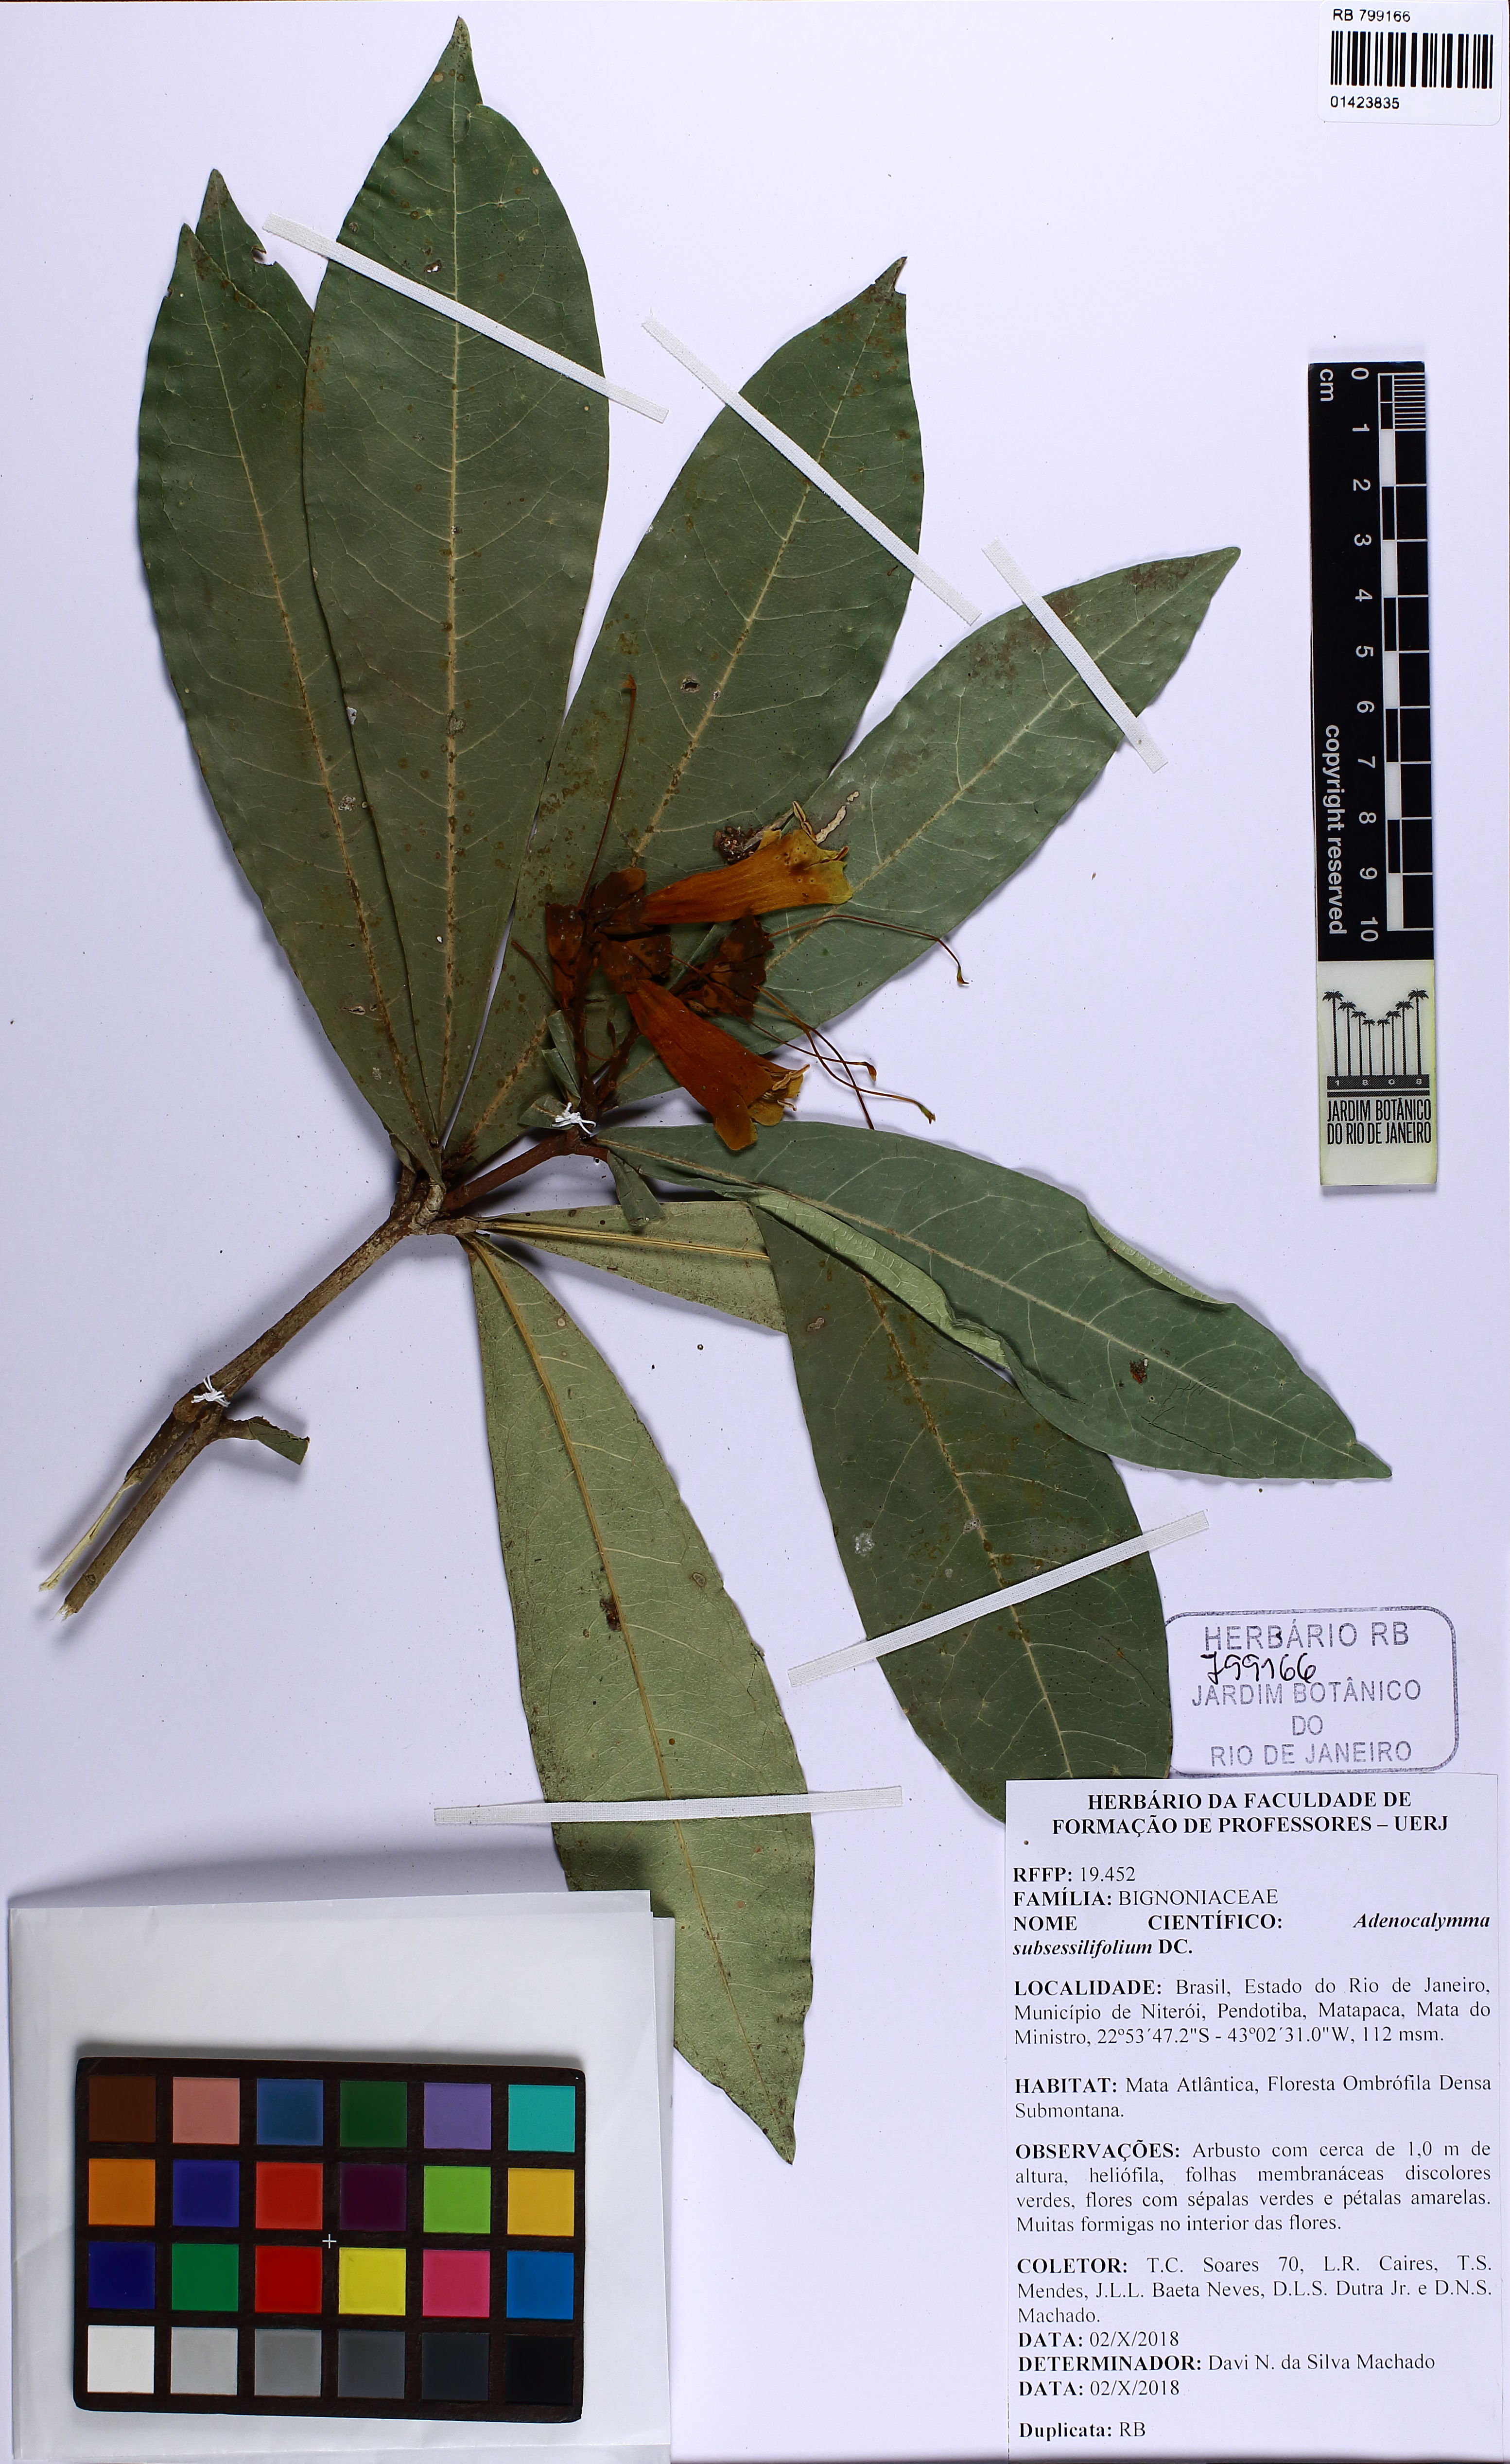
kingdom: Plantae
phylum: Tracheophyta
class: Magnoliopsida
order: Lamiales
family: Bignoniaceae
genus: Adenocalymma
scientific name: Adenocalymma subsessilifolium
